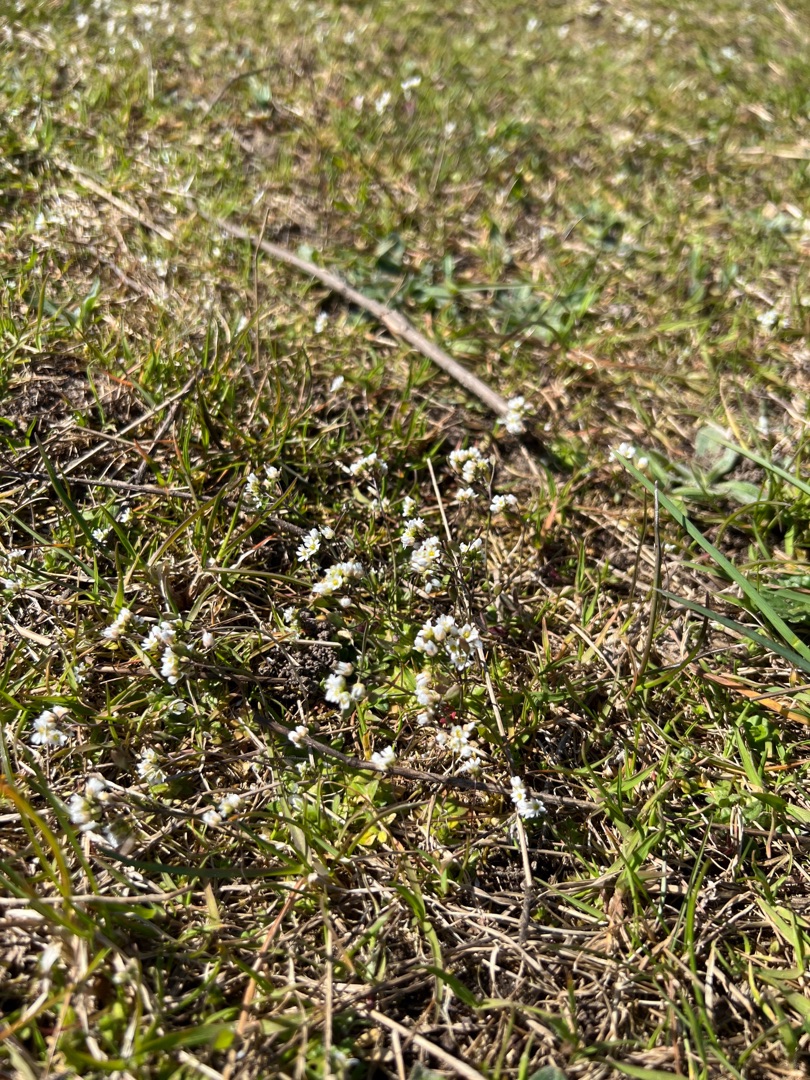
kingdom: Plantae
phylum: Tracheophyta
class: Magnoliopsida
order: Brassicales
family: Brassicaceae
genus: Draba
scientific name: Draba verna
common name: Vår-gæslingeblomst
